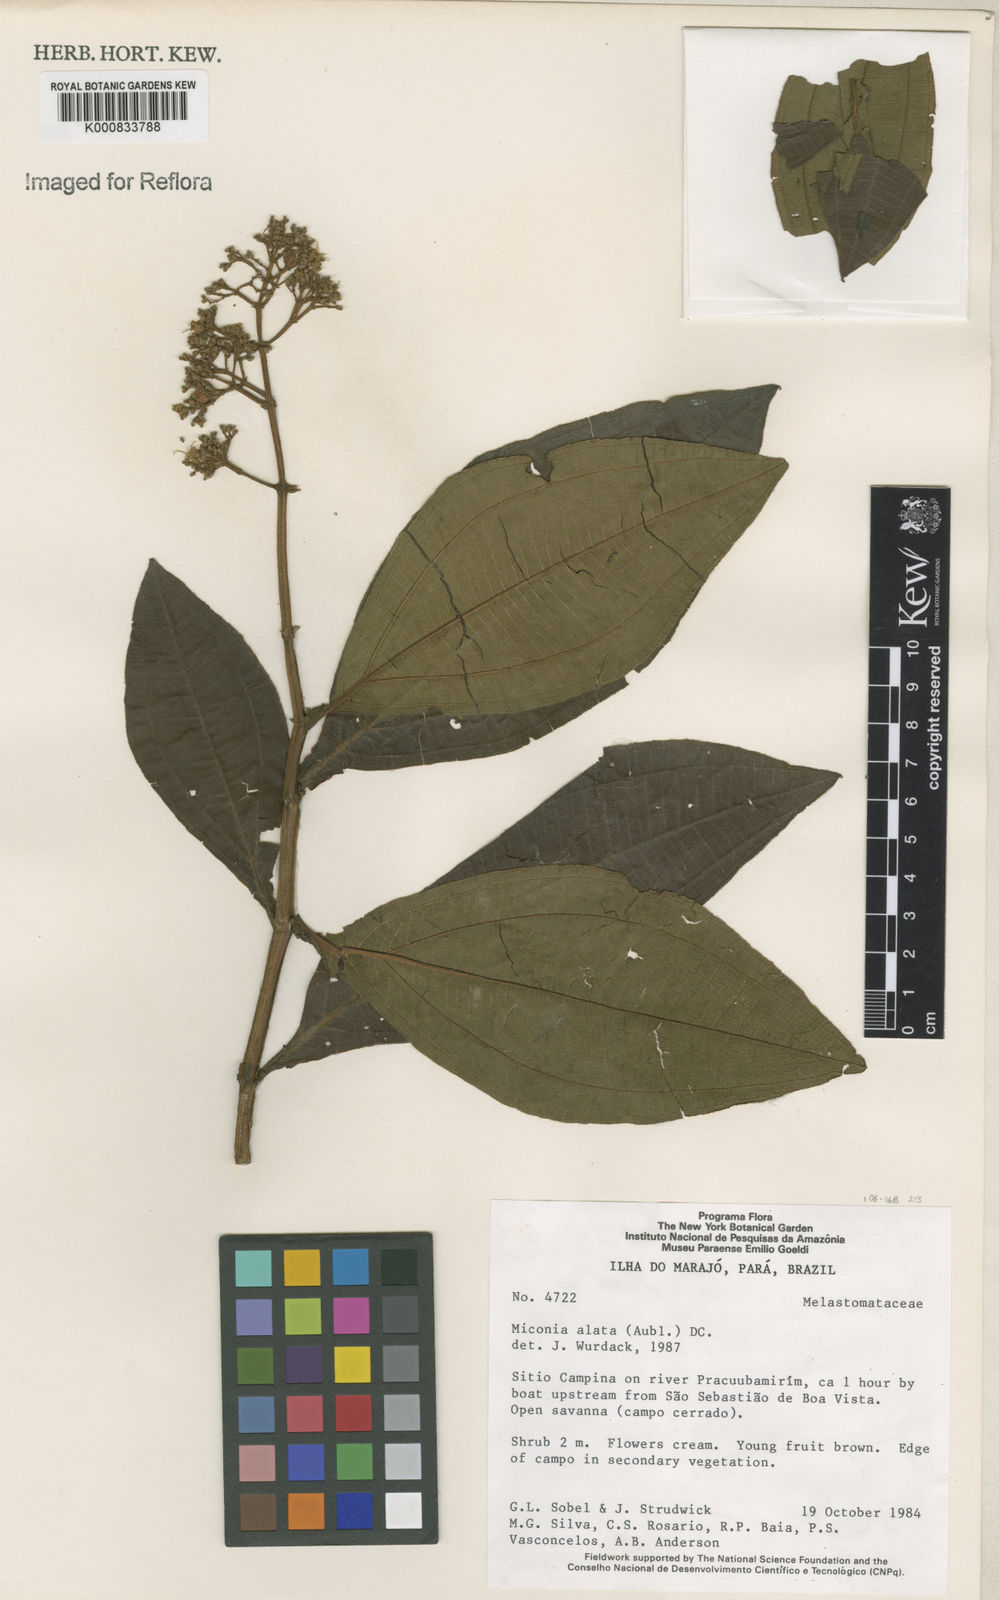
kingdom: Plantae
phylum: Tracheophyta
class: Magnoliopsida
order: Myrtales
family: Melastomataceae
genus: Miconia
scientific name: Miconia alata
